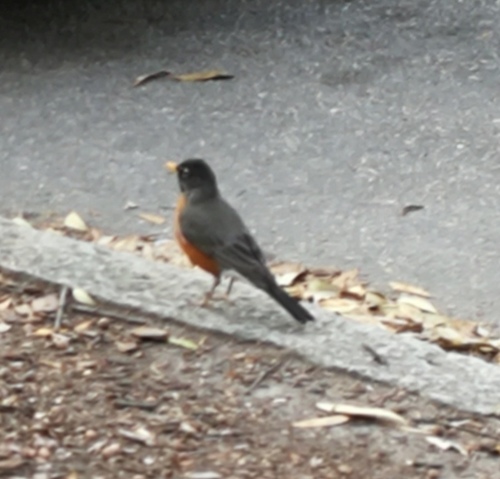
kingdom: Animalia
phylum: Chordata
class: Aves
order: Passeriformes
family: Turdidae
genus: Turdus
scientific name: Turdus migratorius
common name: American robin
